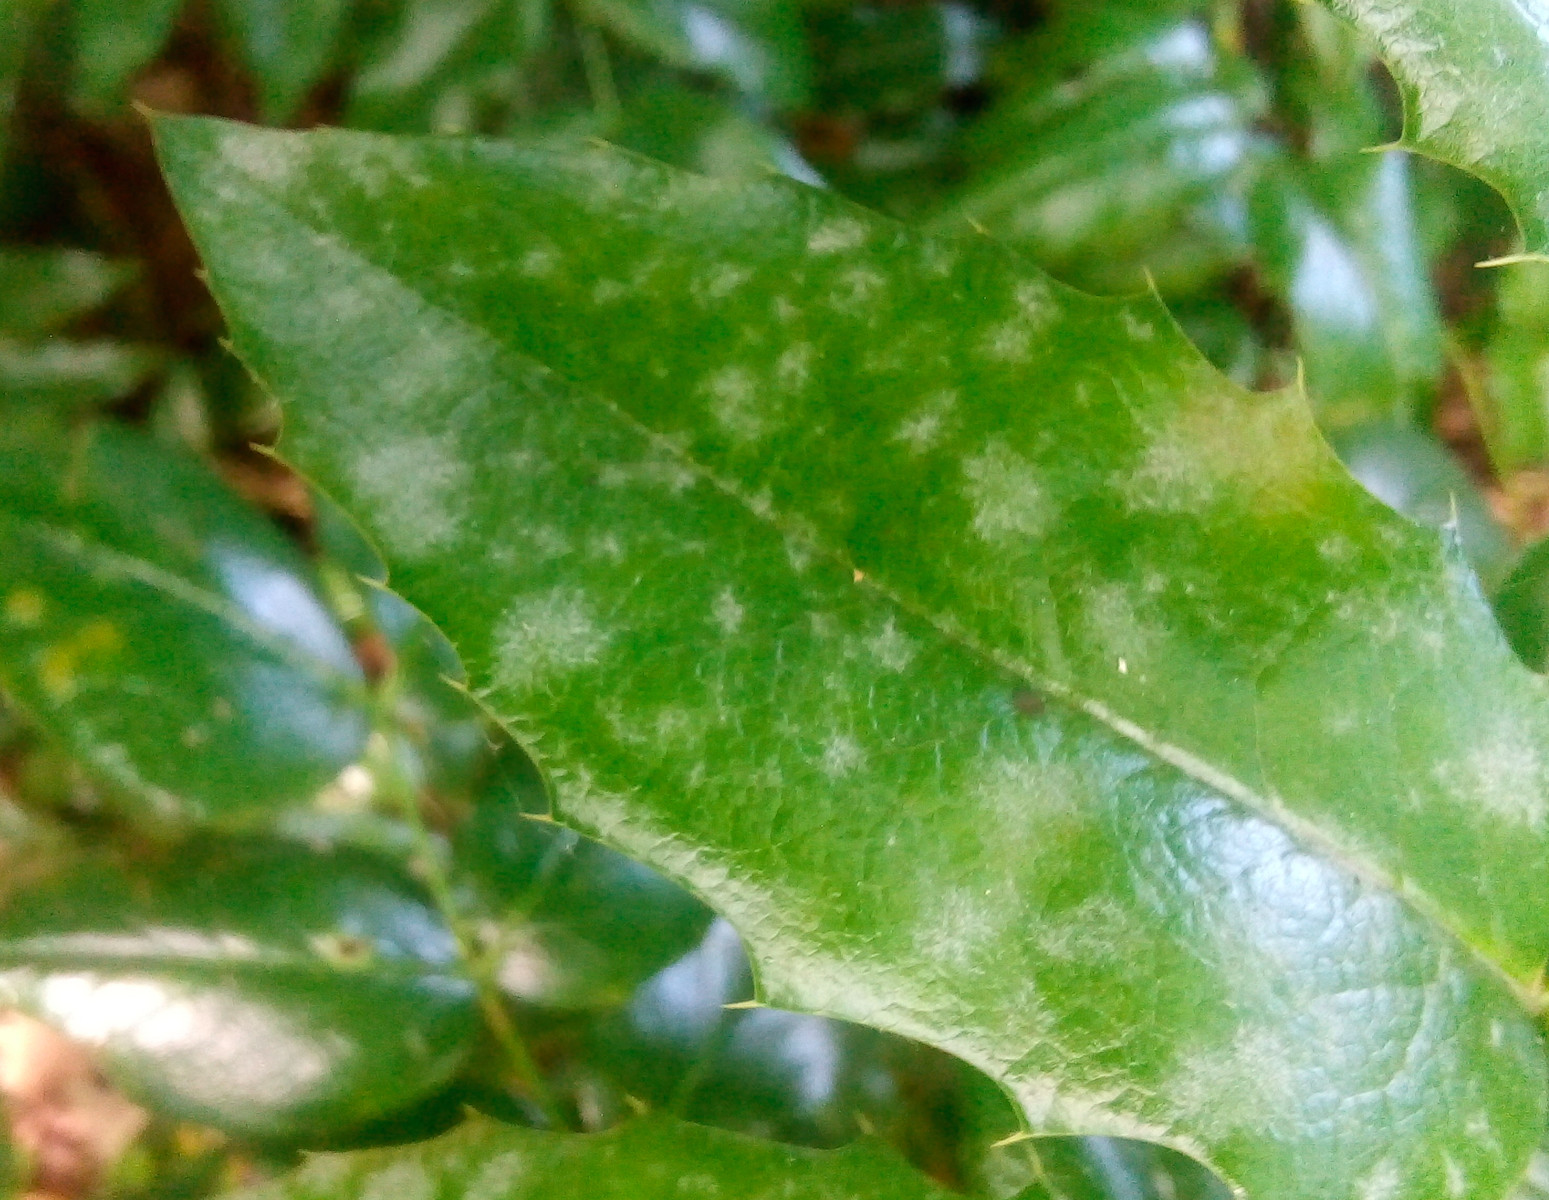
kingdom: Fungi
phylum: Ascomycota
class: Leotiomycetes
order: Helotiales
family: Erysiphaceae
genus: Erysiphe
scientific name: Erysiphe berberidis
